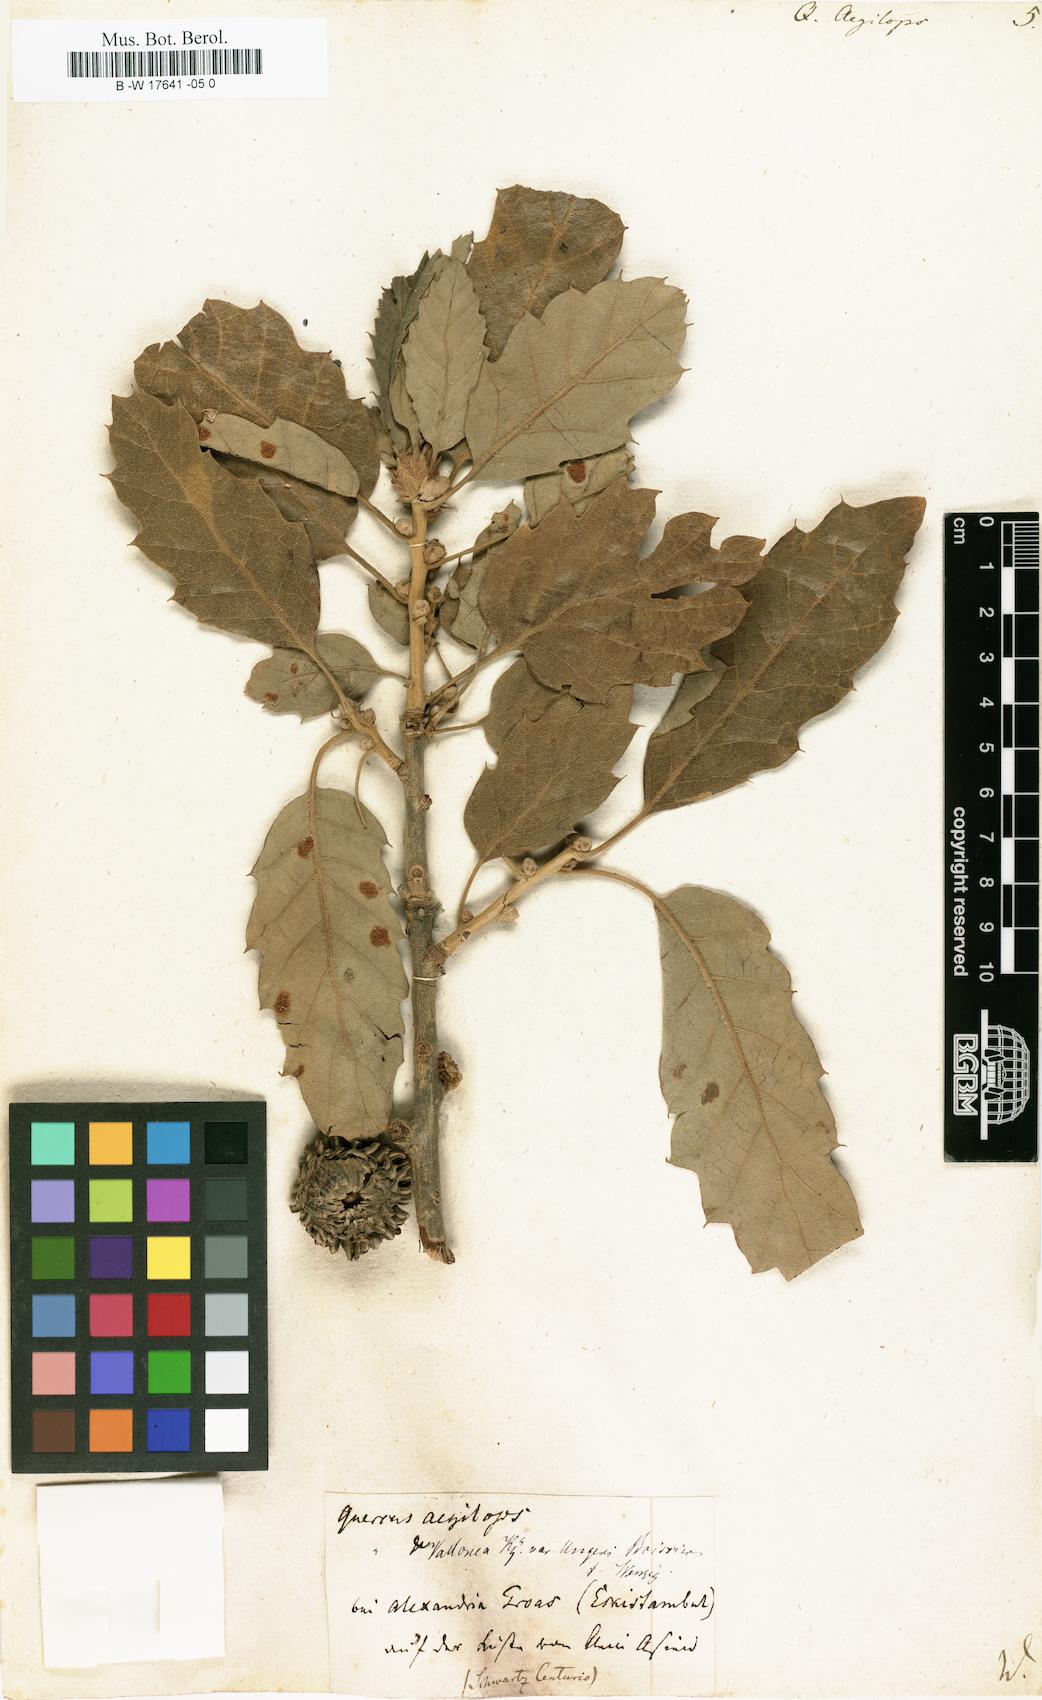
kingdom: Plantae
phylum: Tracheophyta
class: Magnoliopsida
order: Fagales
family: Fagaceae
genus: Quercus
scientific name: Quercus
